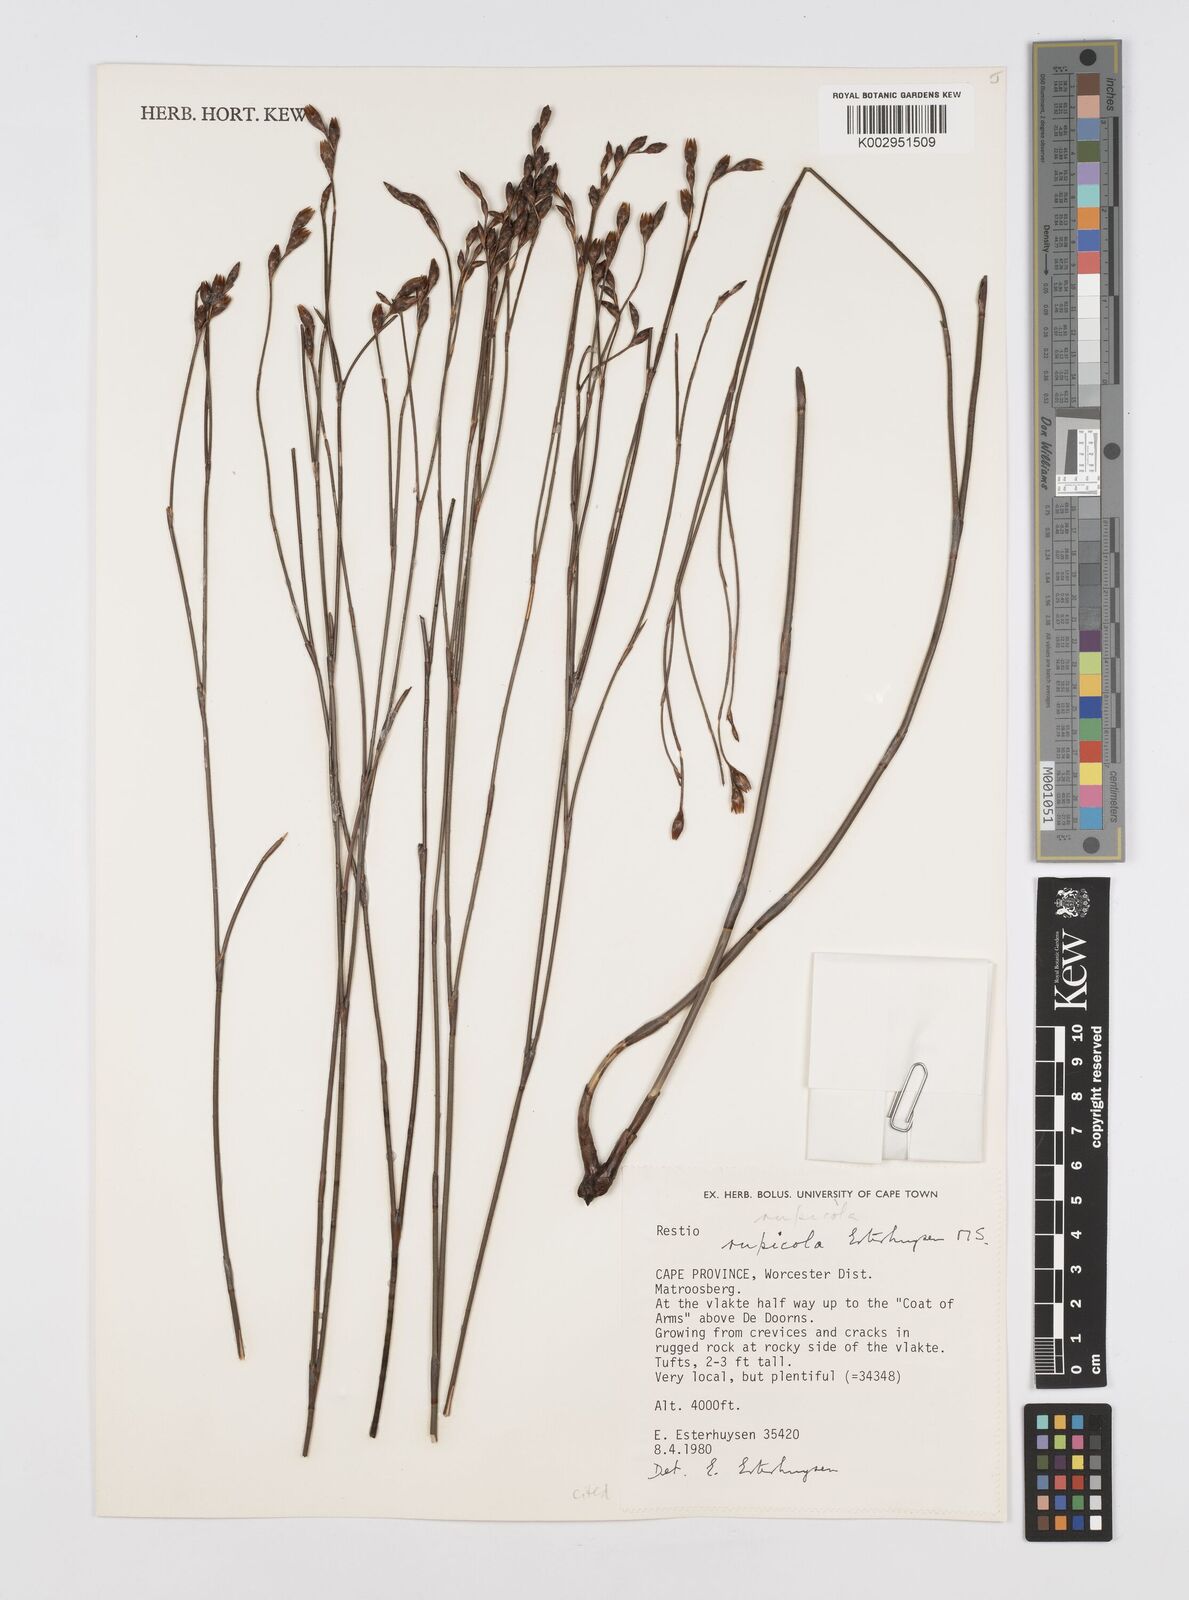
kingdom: Plantae
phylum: Tracheophyta
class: Liliopsida
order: Poales
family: Restionaceae
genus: Restio
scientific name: Restio rupicola
